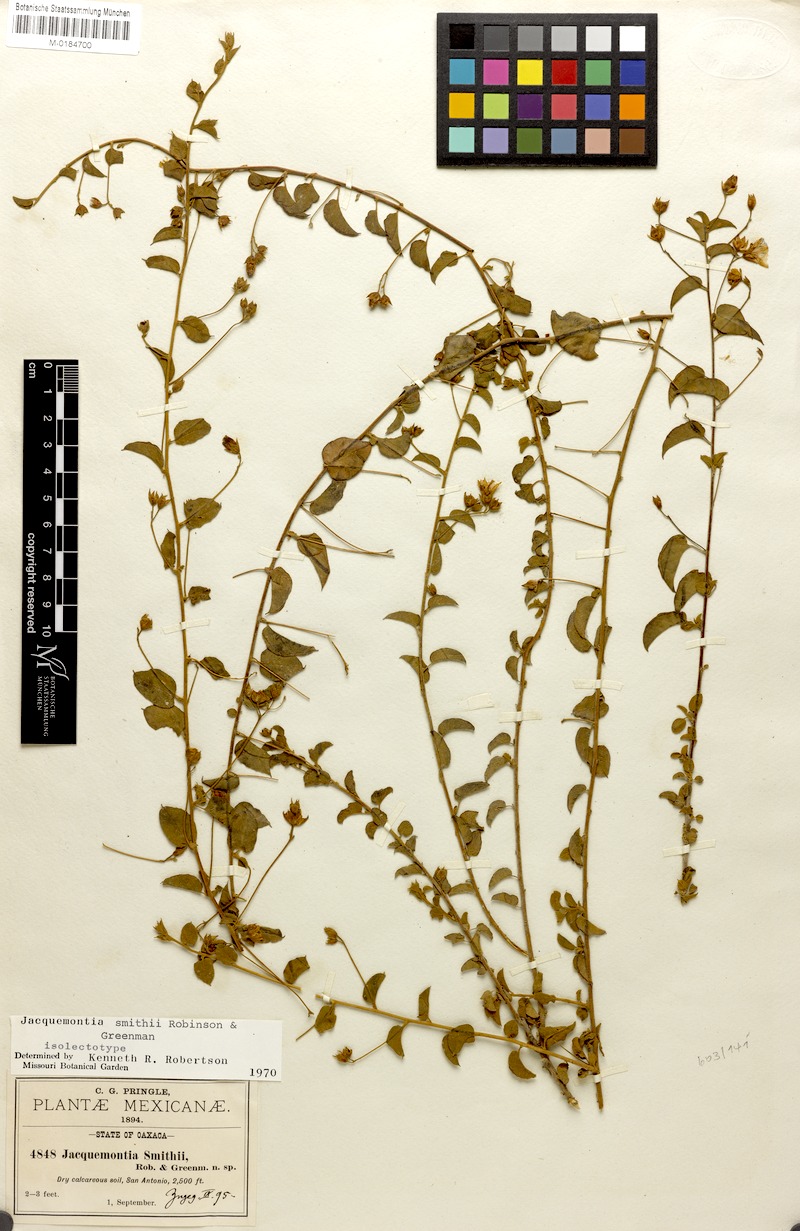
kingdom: Plantae
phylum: Tracheophyta
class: Magnoliopsida
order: Solanales
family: Convolvulaceae
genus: Jacquemontia
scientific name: Jacquemontia smithii
